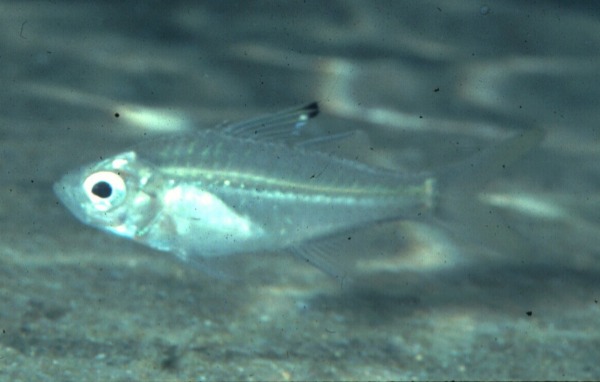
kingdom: Animalia
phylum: Chordata
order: Perciformes
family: Ambassidae
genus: Ambassis
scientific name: Ambassis
